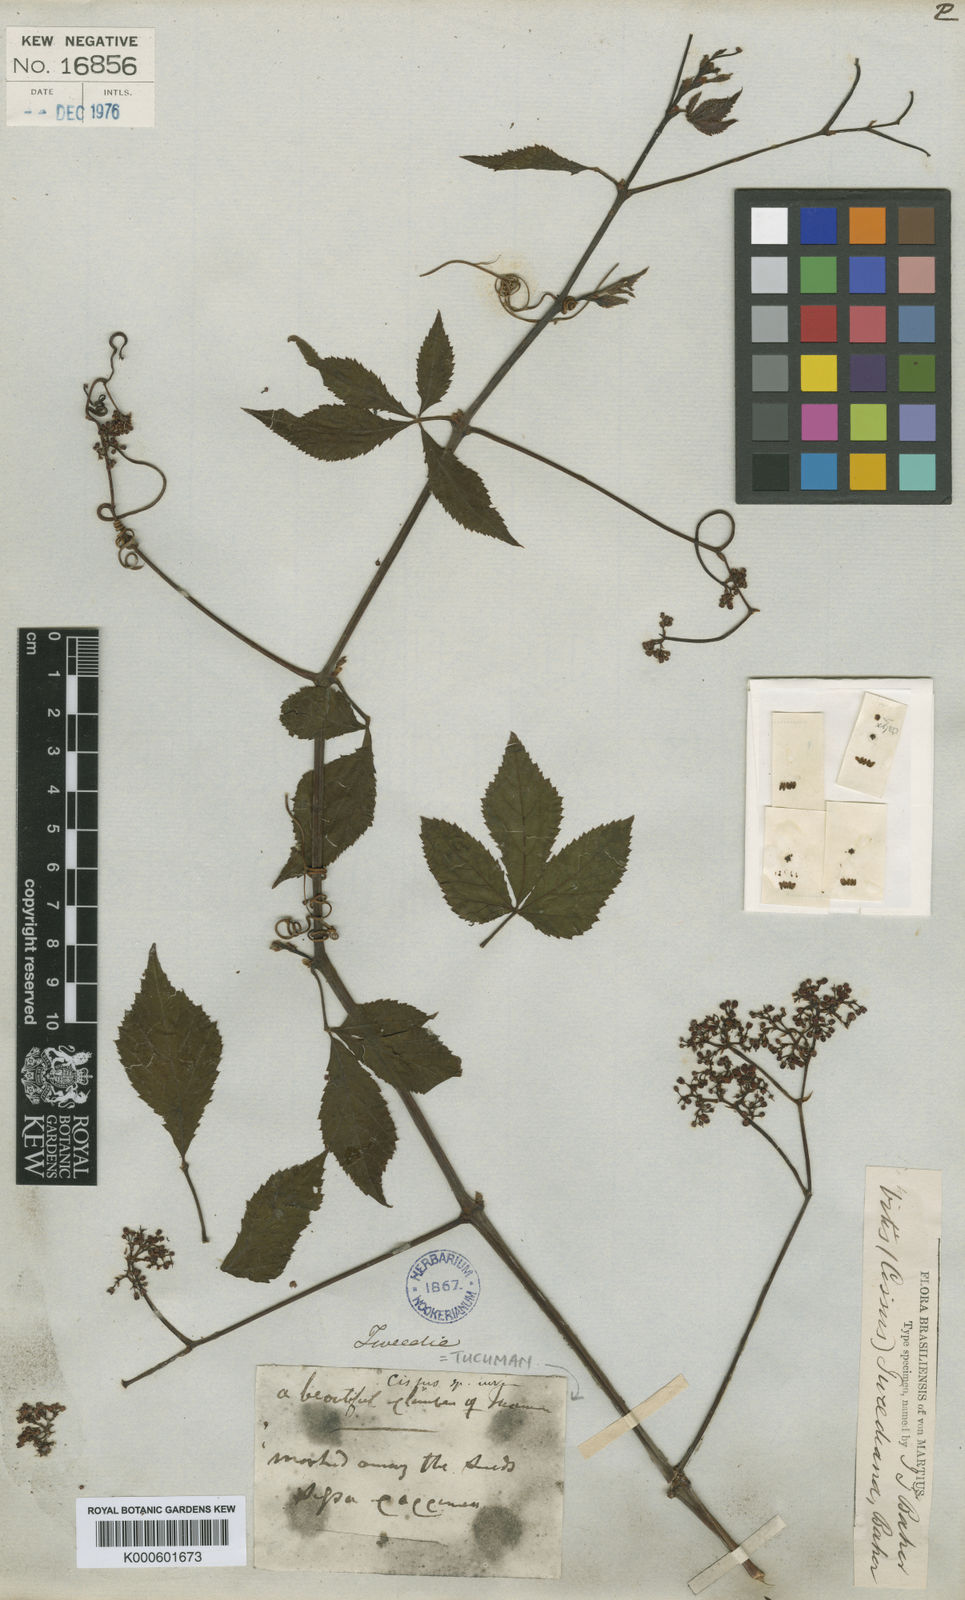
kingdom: Plantae
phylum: Tracheophyta
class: Magnoliopsida
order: Vitales
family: Vitaceae
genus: Cissus
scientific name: Cissus
